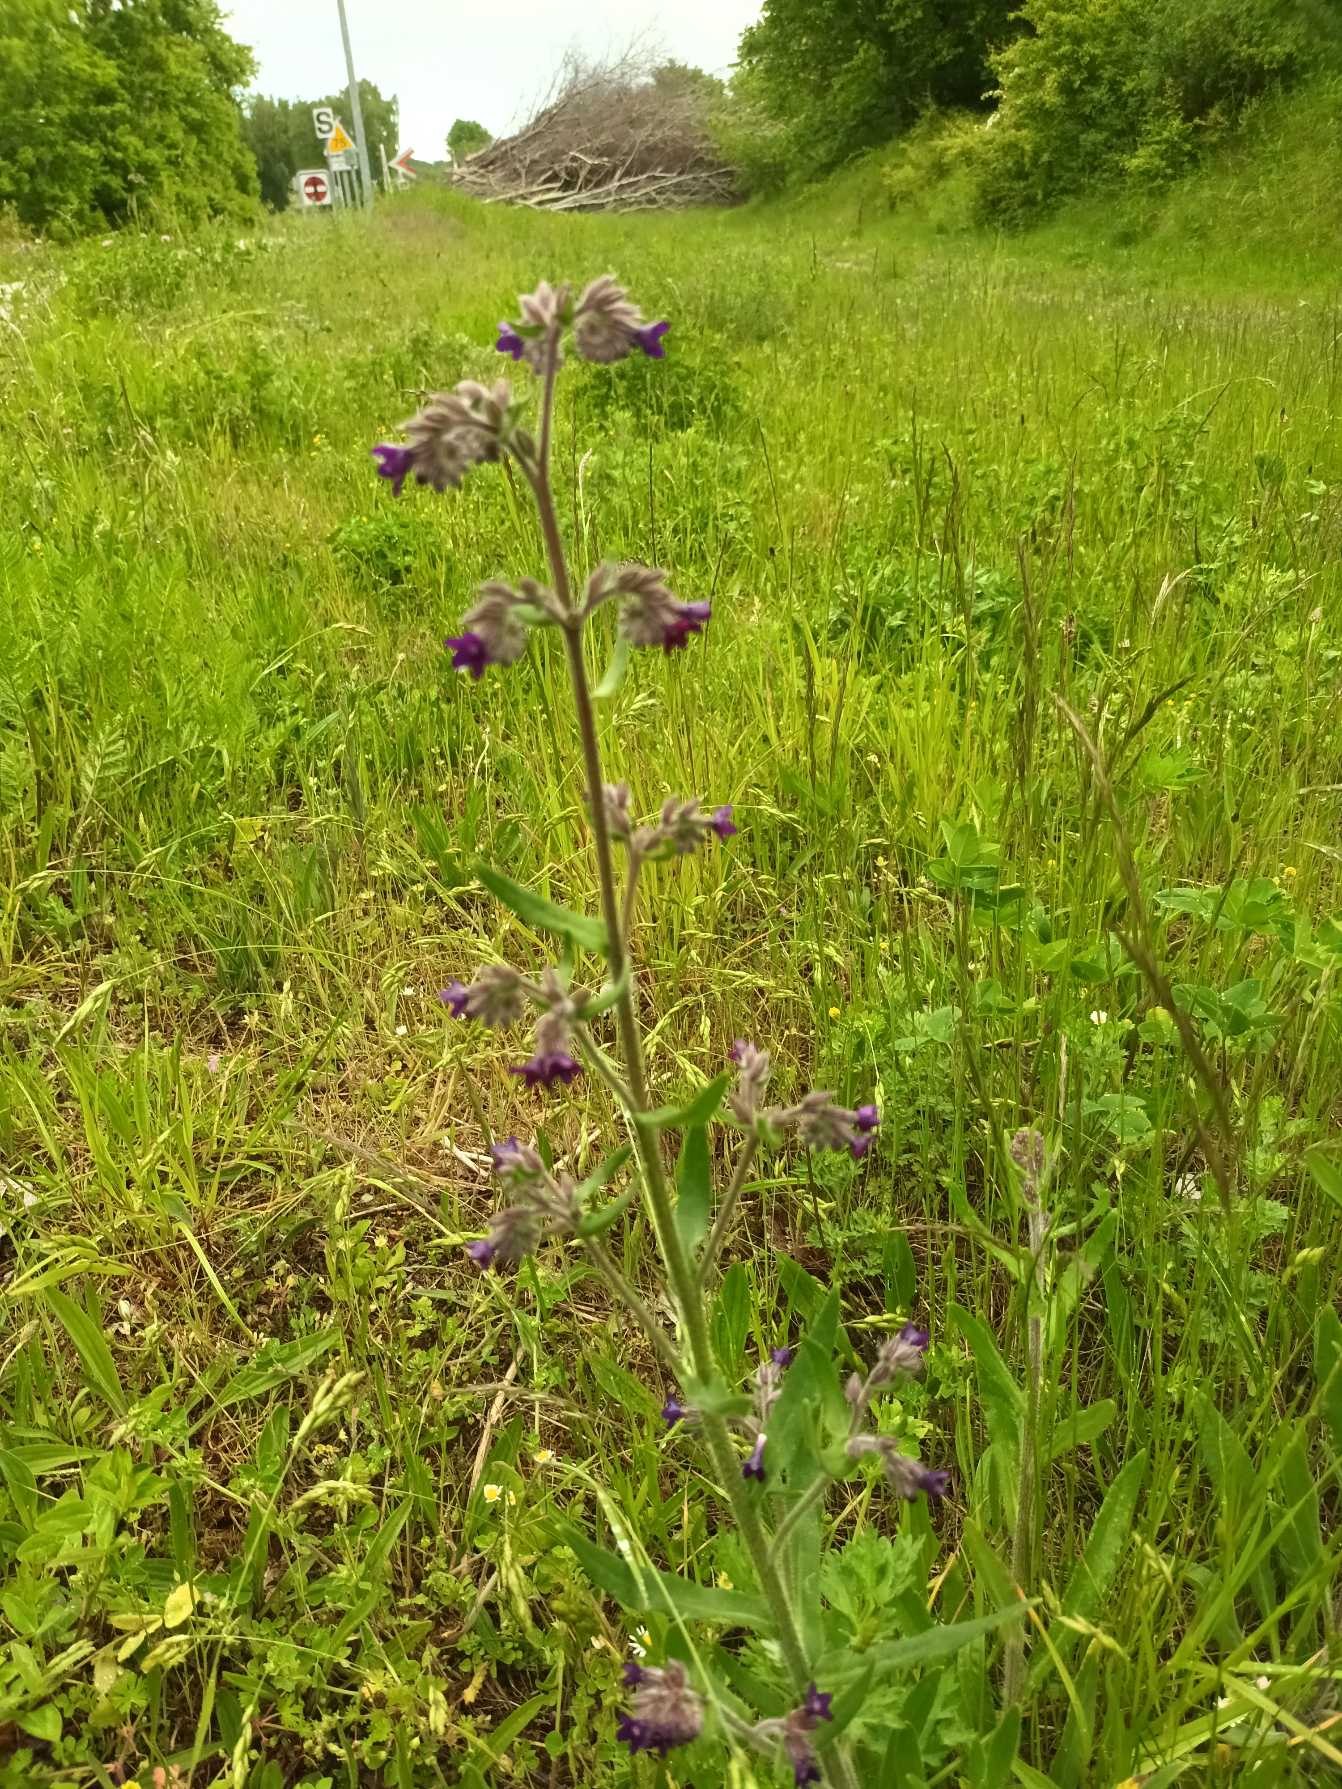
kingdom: Plantae
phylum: Tracheophyta
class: Magnoliopsida
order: Boraginales
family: Boraginaceae
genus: Anchusa
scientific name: Anchusa officinalis
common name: Læge-oksetunge
